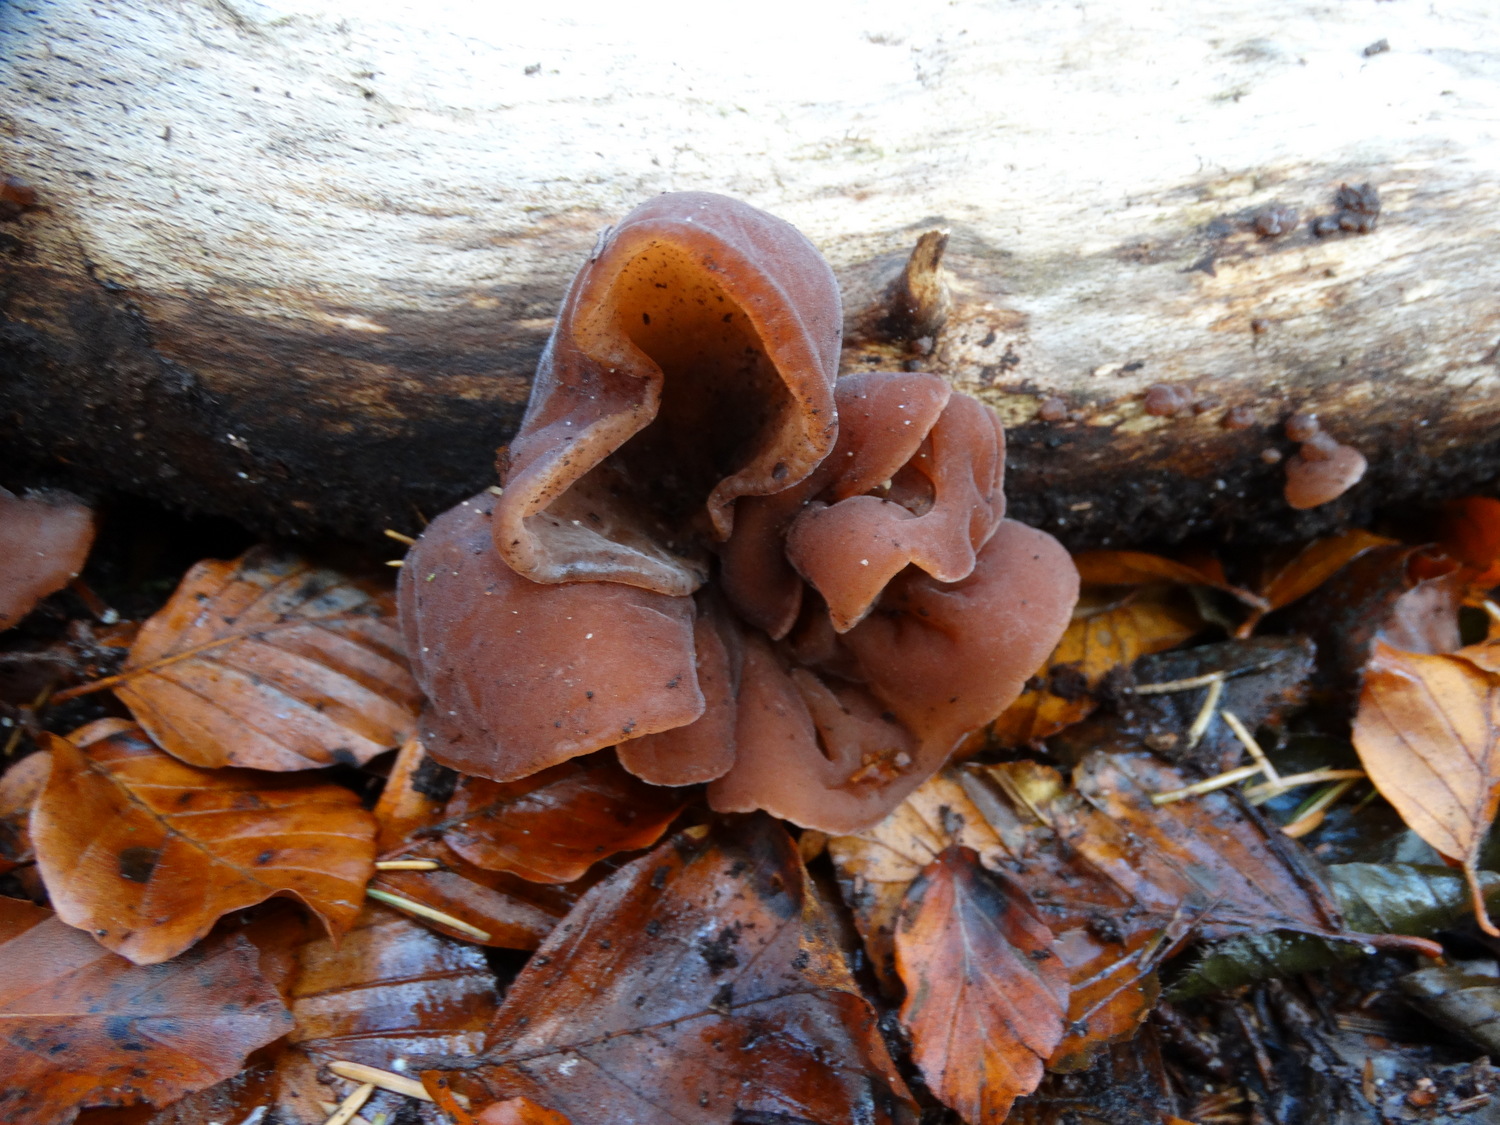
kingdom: Fungi
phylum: Basidiomycota
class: Agaricomycetes
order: Auriculariales
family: Auriculariaceae
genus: Auricularia
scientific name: Auricularia auricula-judae
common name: almindelig judasøre
